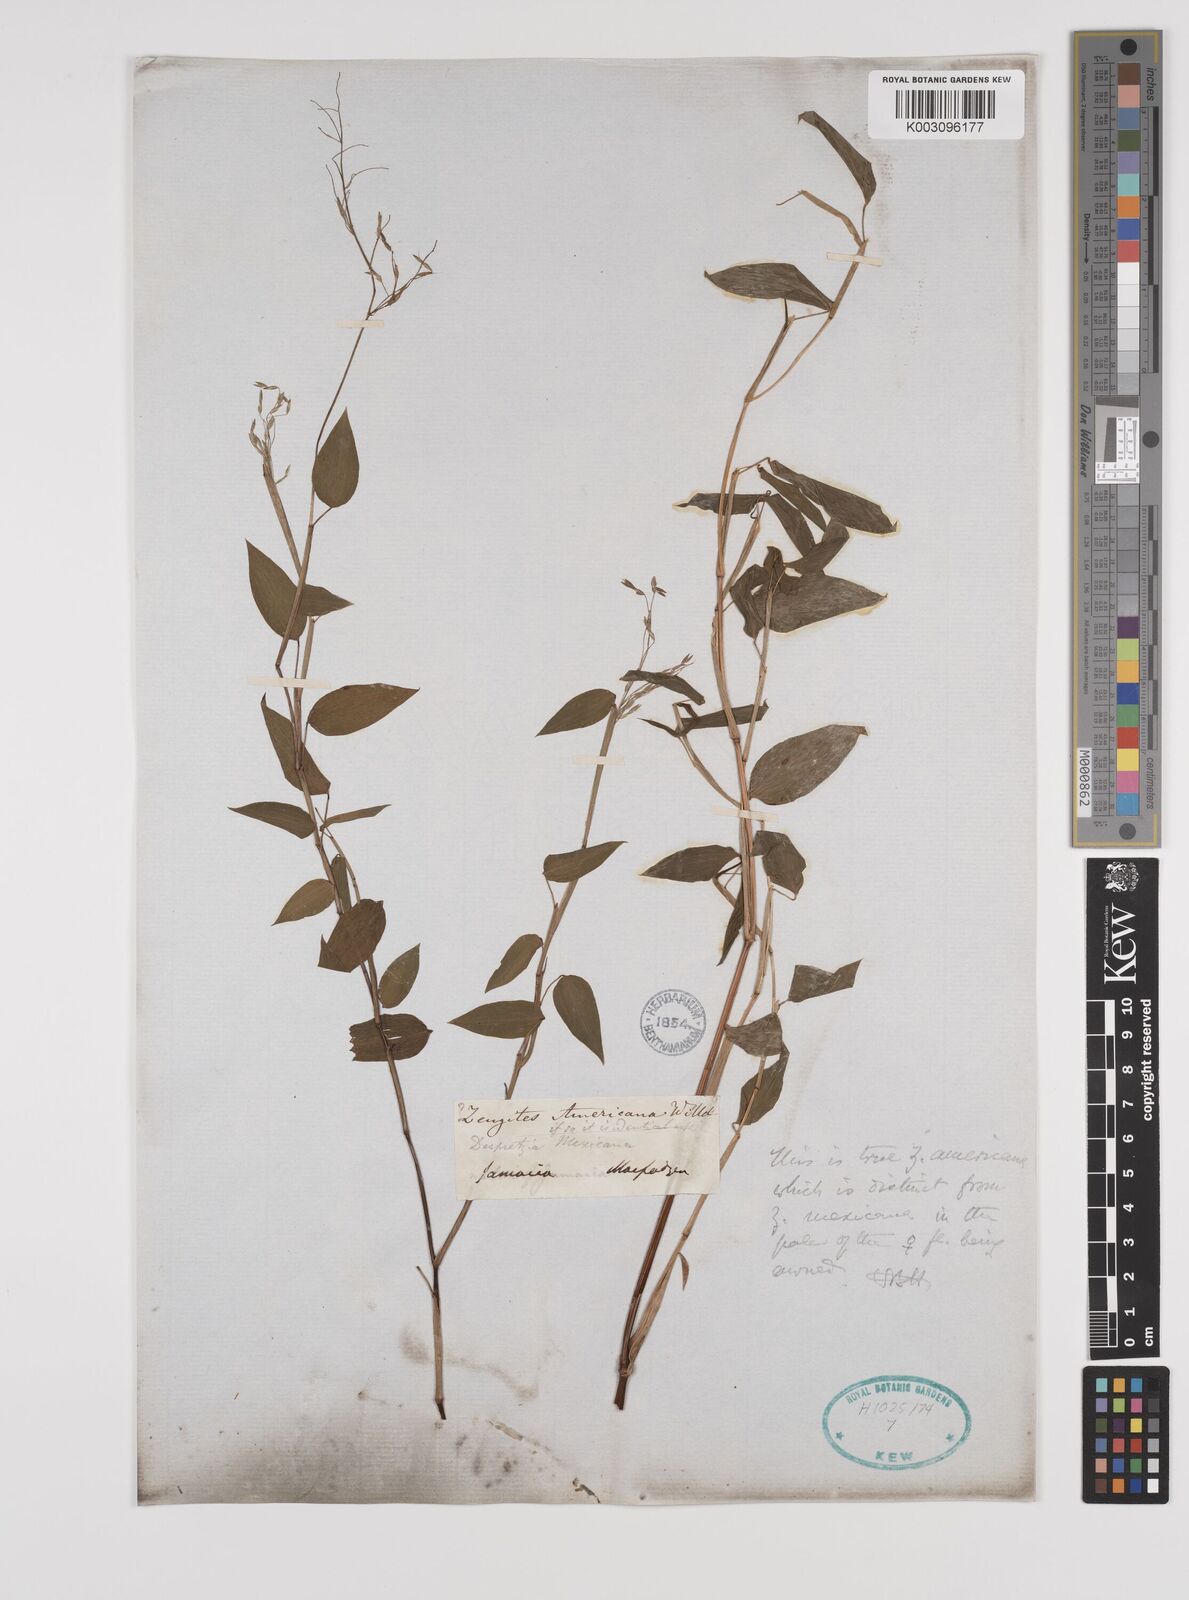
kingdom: Plantae
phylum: Tracheophyta
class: Liliopsida
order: Poales
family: Poaceae
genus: Zeugites
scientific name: Zeugites americanus
